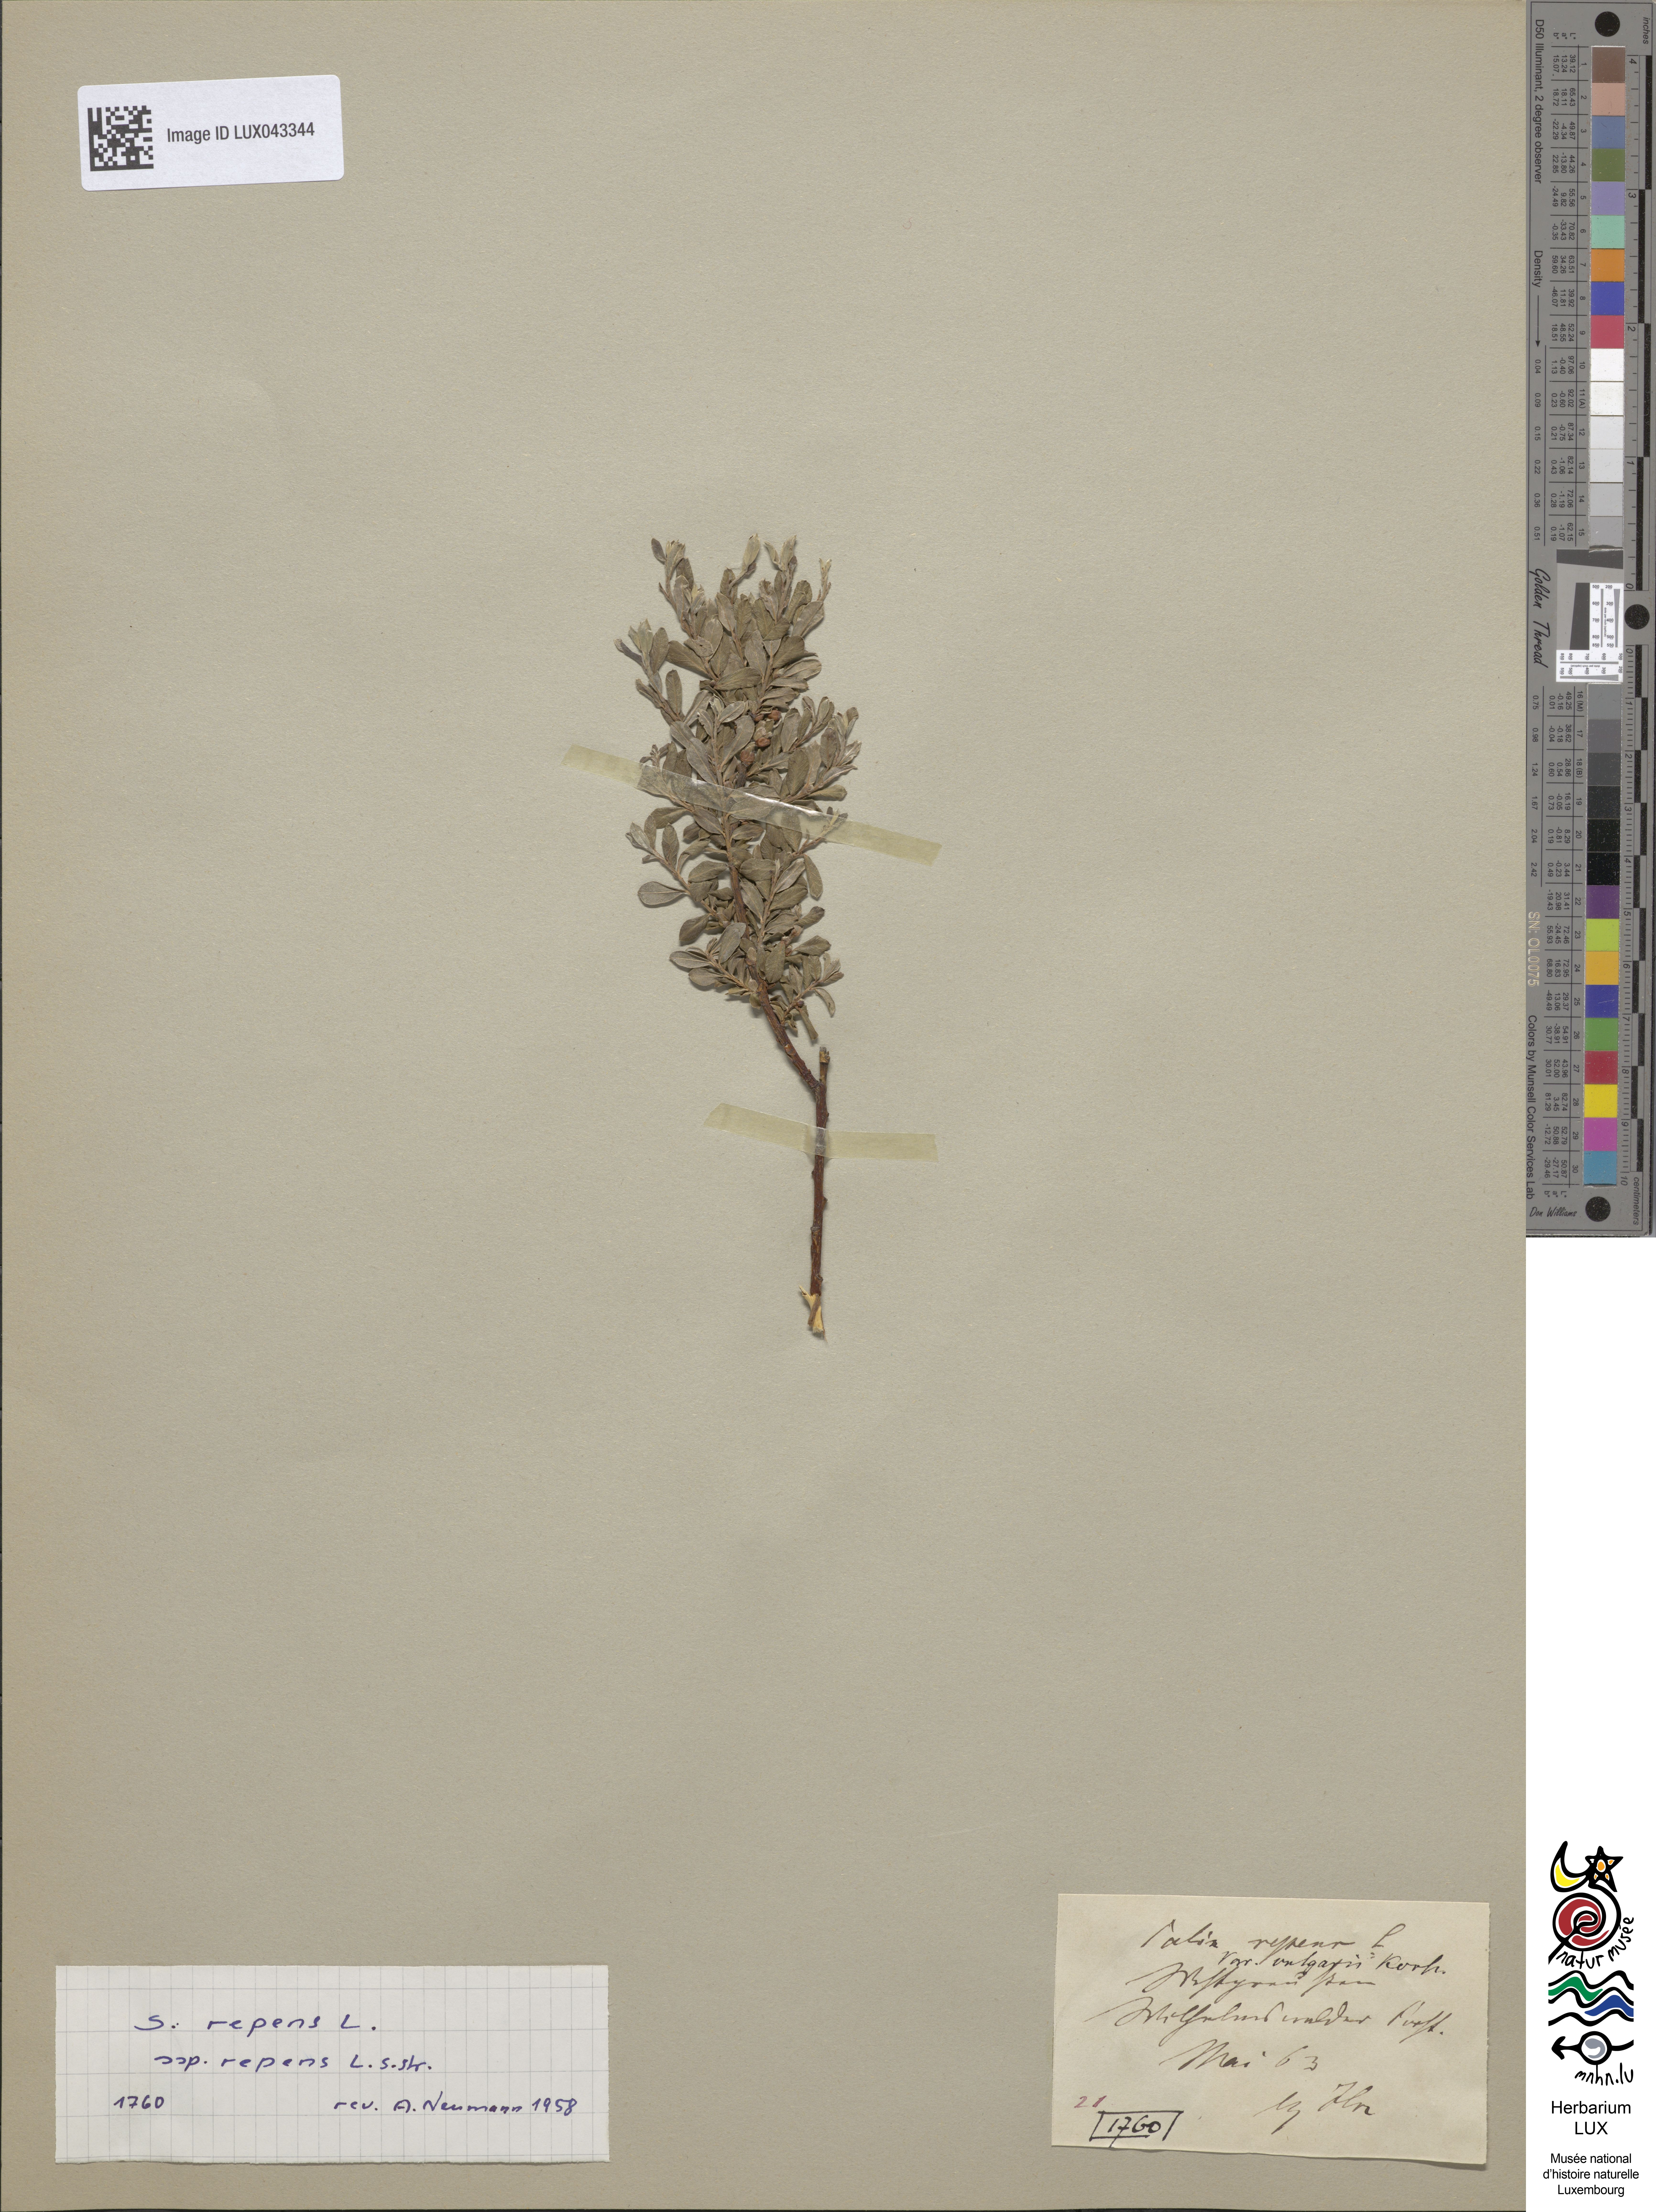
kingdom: Plantae
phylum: Tracheophyta
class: Magnoliopsida
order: Malpighiales
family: Salicaceae
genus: Salix
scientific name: Salix repens
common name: Creeping willow
